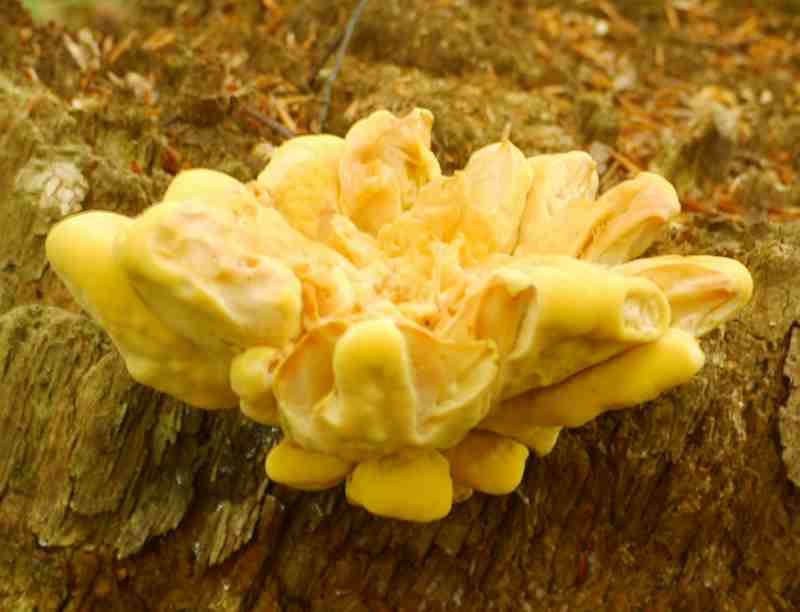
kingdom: Fungi
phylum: Basidiomycota
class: Agaricomycetes
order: Polyporales
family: Laetiporaceae
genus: Laetiporus
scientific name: Laetiporus sulphureus
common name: svovlporesvamp
